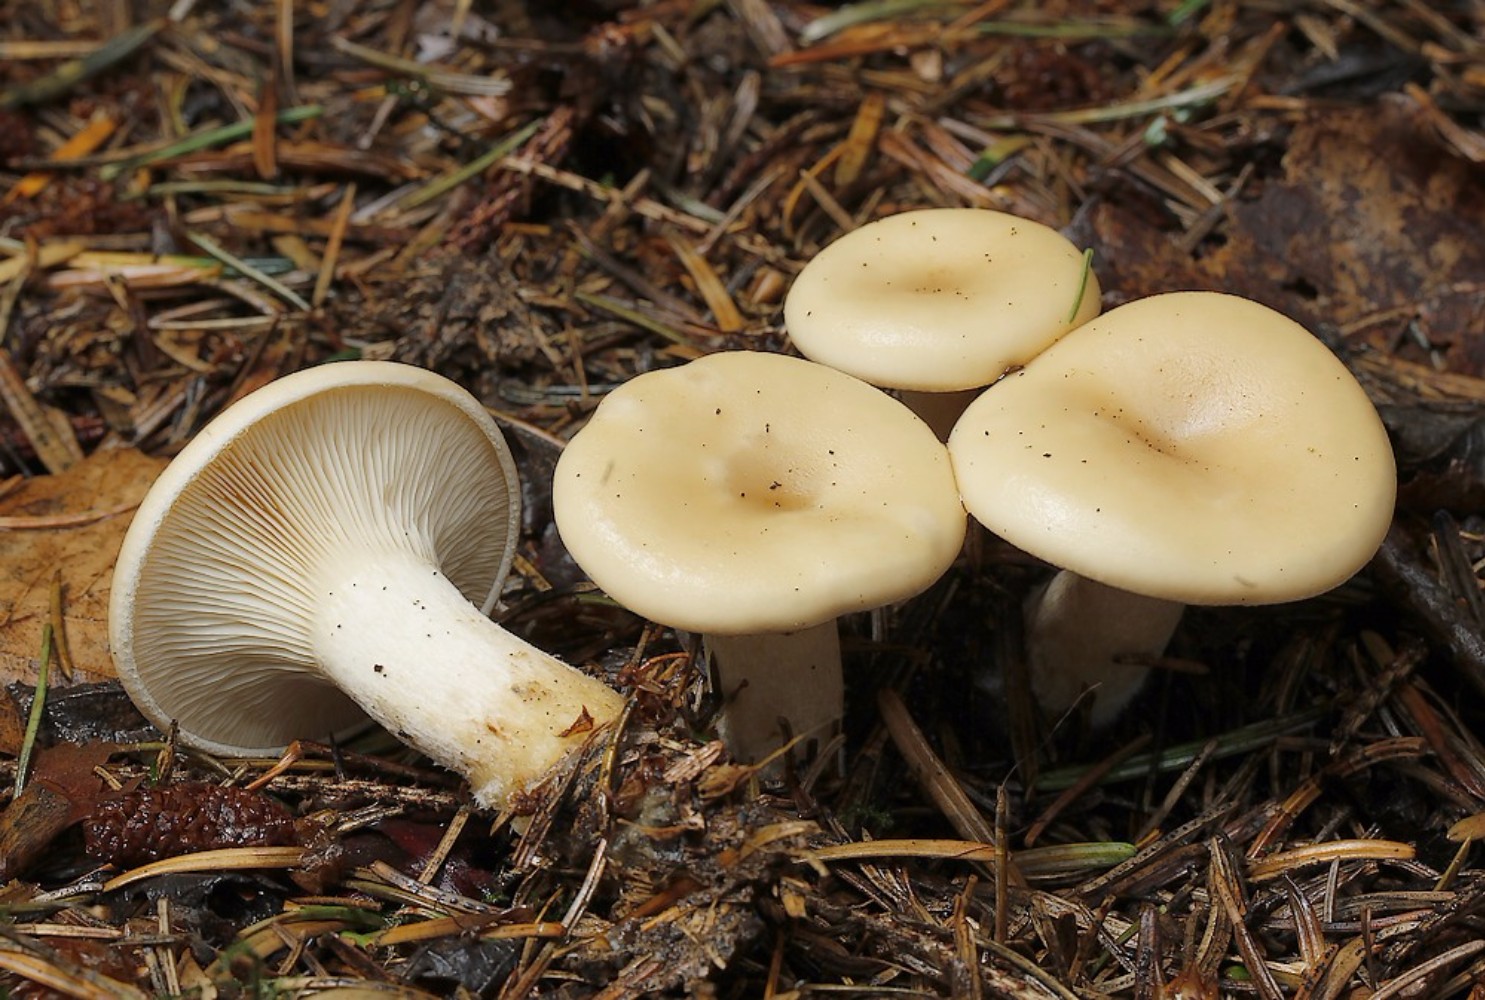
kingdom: Fungi
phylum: Basidiomycota
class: Agaricomycetes
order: Agaricales
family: Tricholomataceae
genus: Paralepista
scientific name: Paralepista gilva
